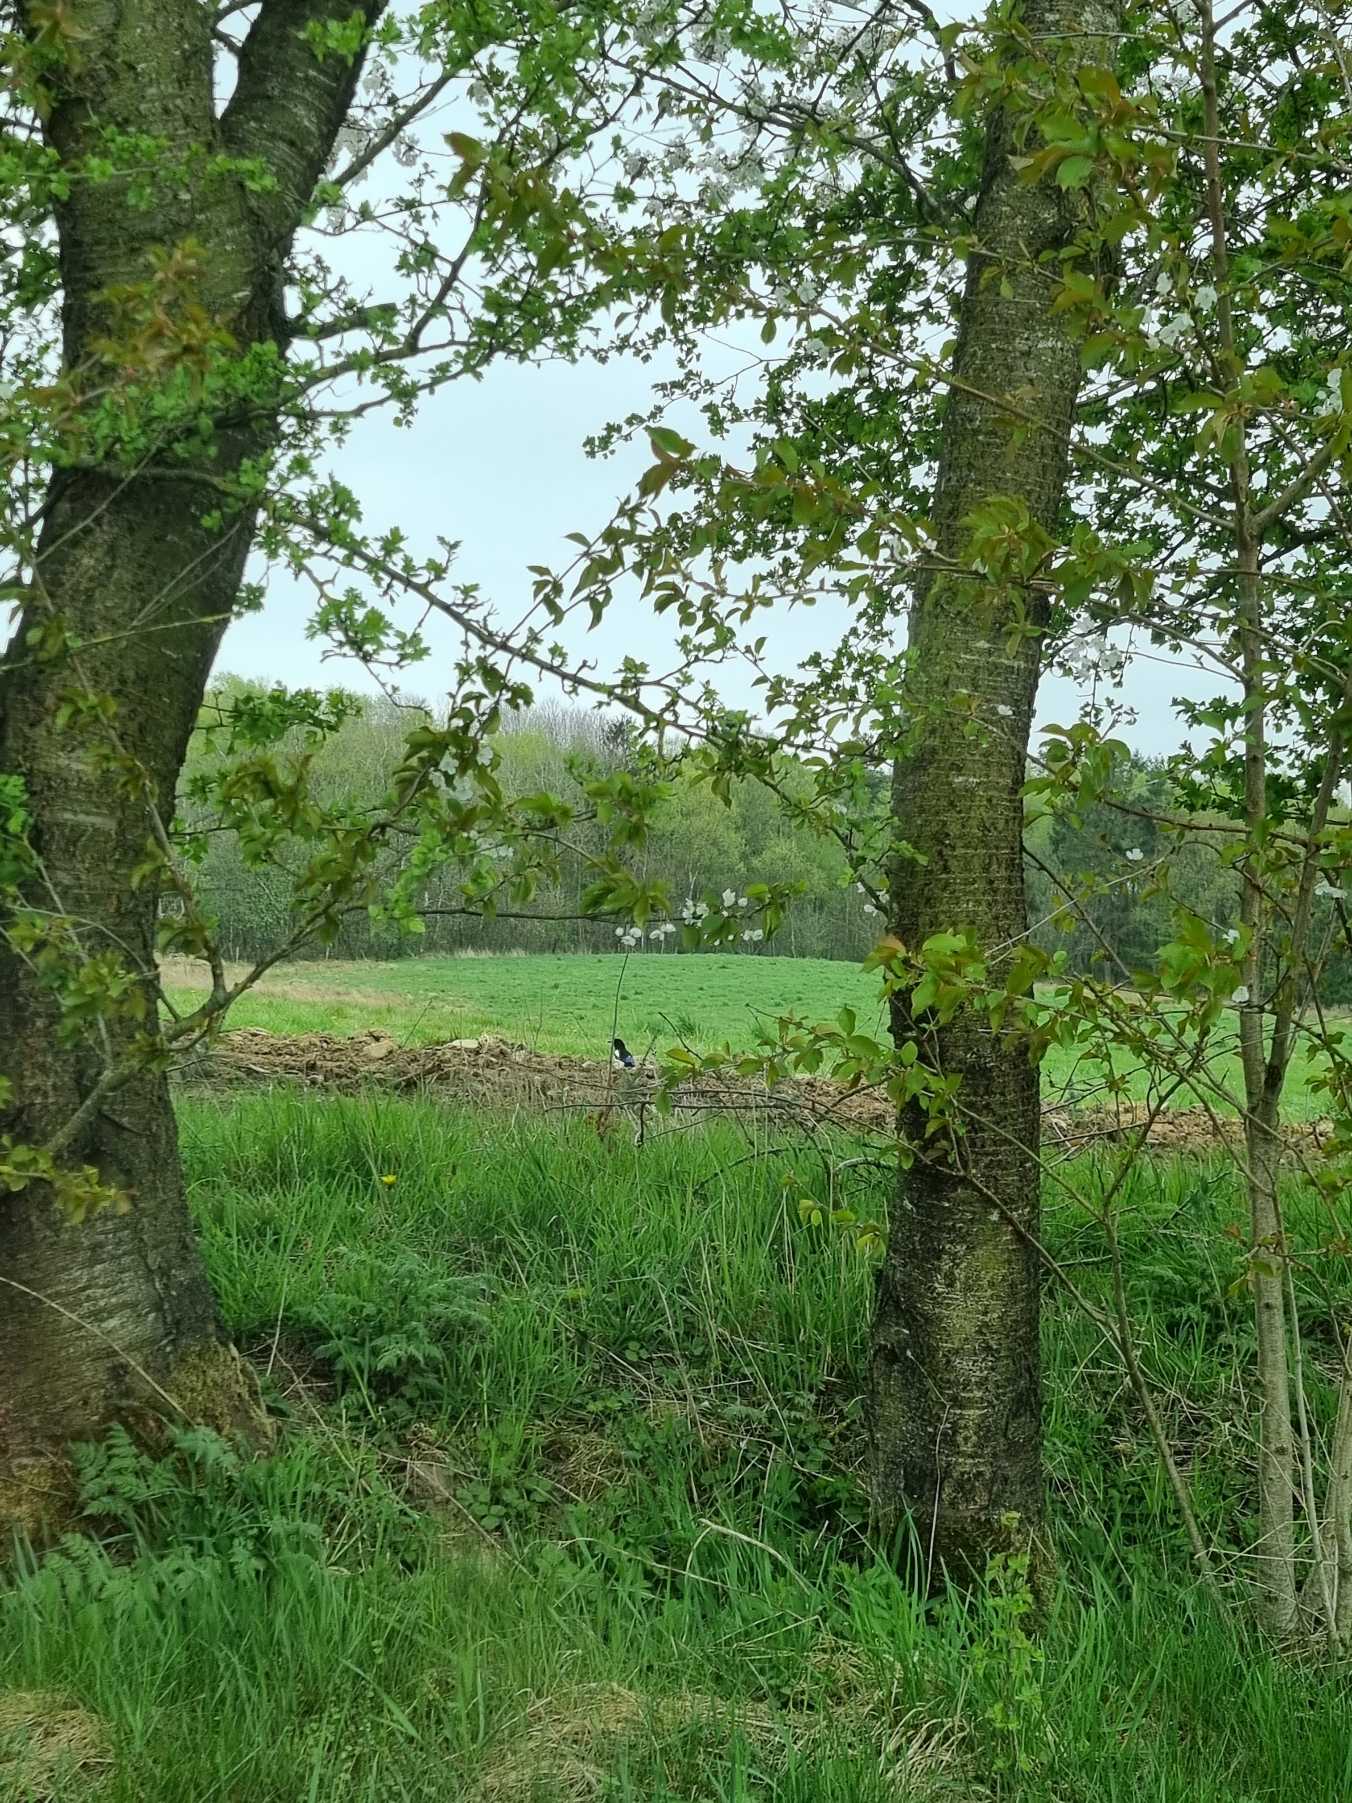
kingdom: Animalia
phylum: Chordata
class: Aves
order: Passeriformes
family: Corvidae
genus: Pica
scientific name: Pica pica
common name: Husskade
